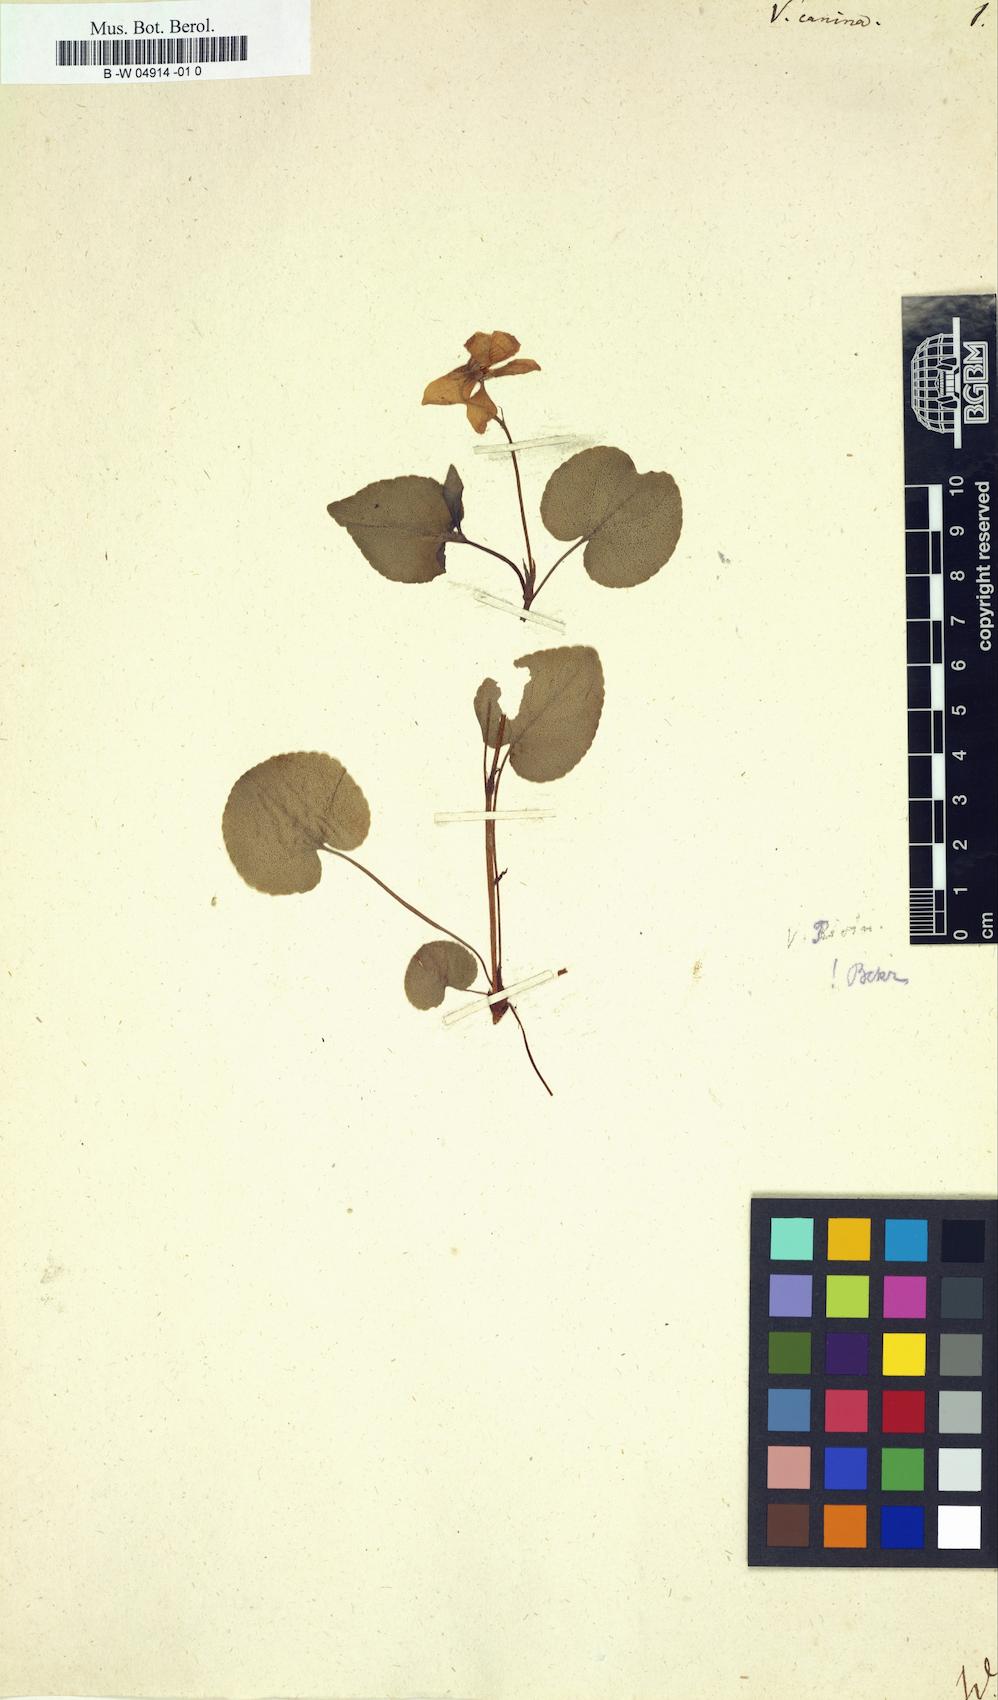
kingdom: Plantae
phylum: Tracheophyta
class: Magnoliopsida
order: Malpighiales
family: Violaceae
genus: Viola
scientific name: Viola canina
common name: Heath dog-violet
